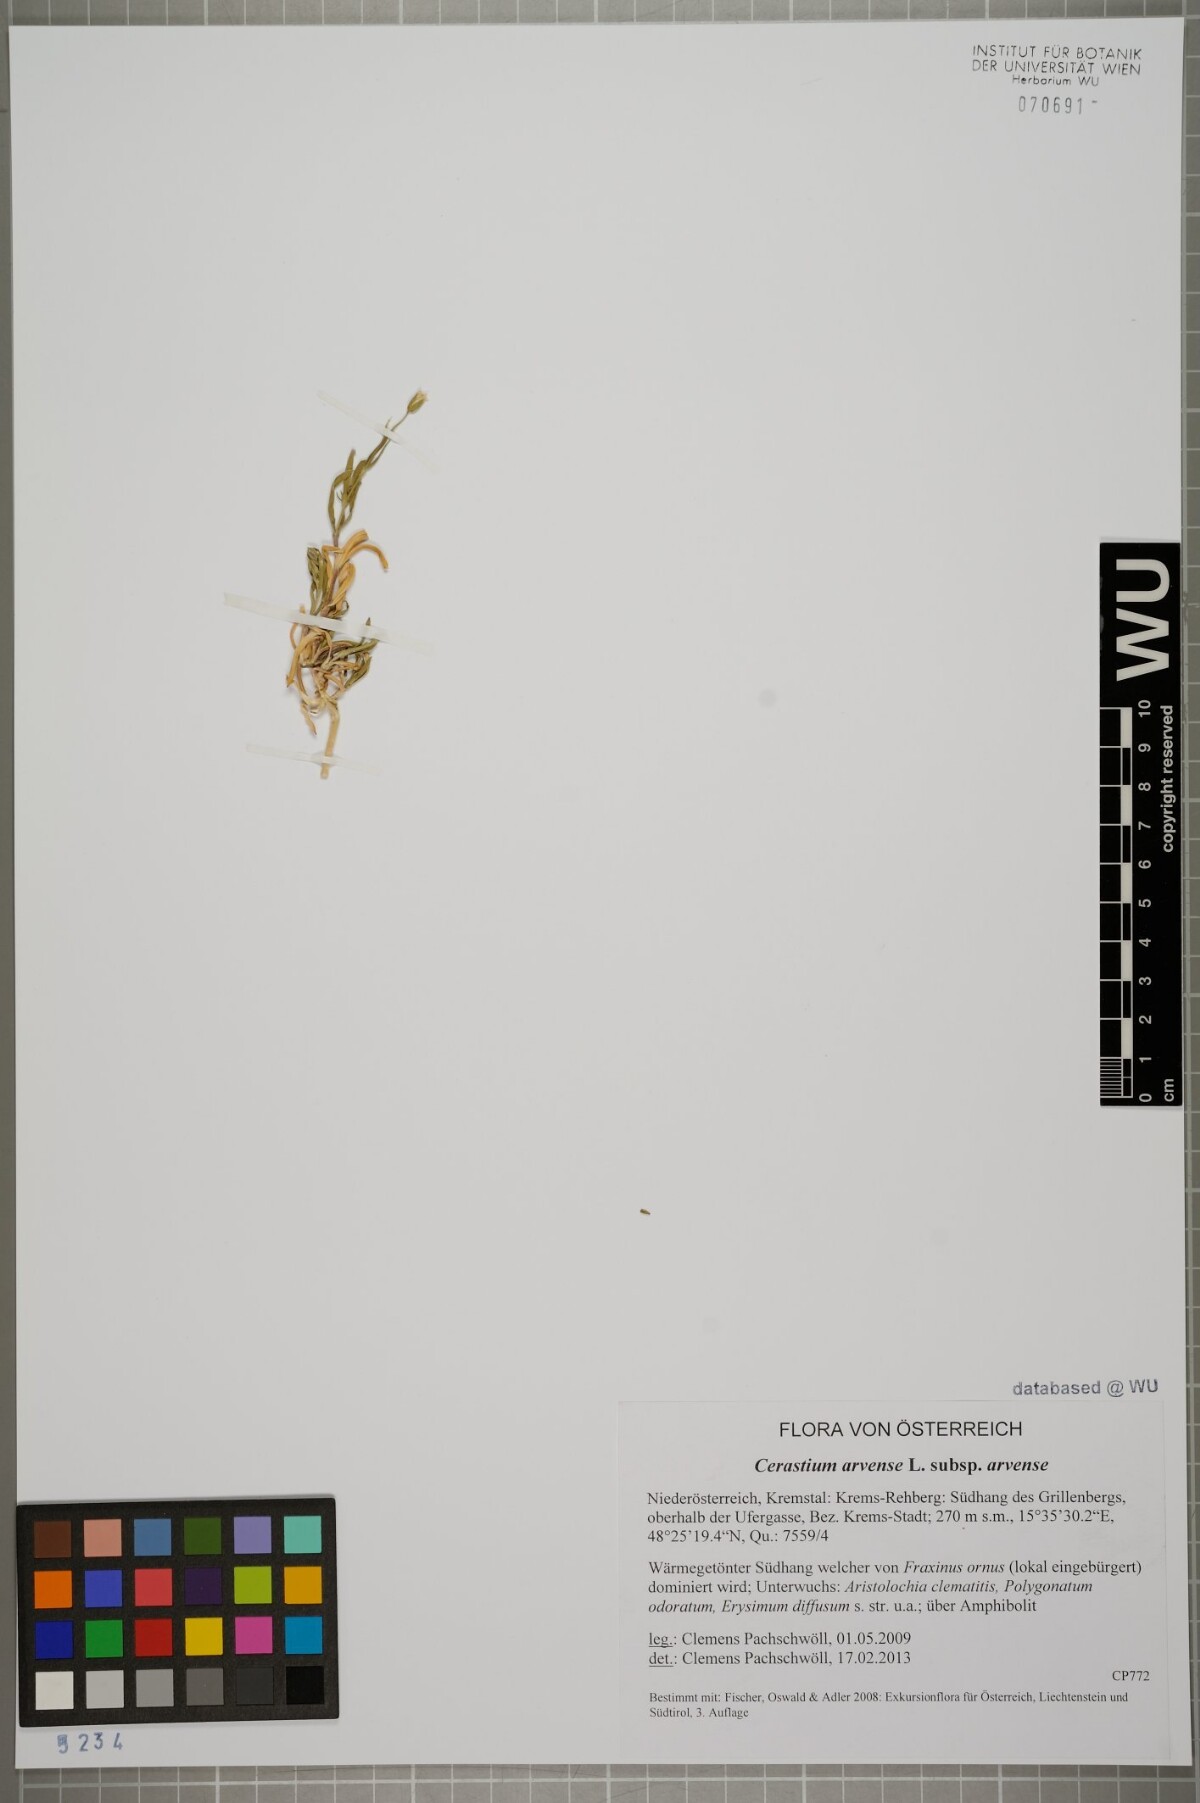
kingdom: Plantae
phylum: Tracheophyta
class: Magnoliopsida
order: Caryophyllales
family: Caryophyllaceae
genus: Cerastium
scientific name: Cerastium arvense
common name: Field mouse-ear
